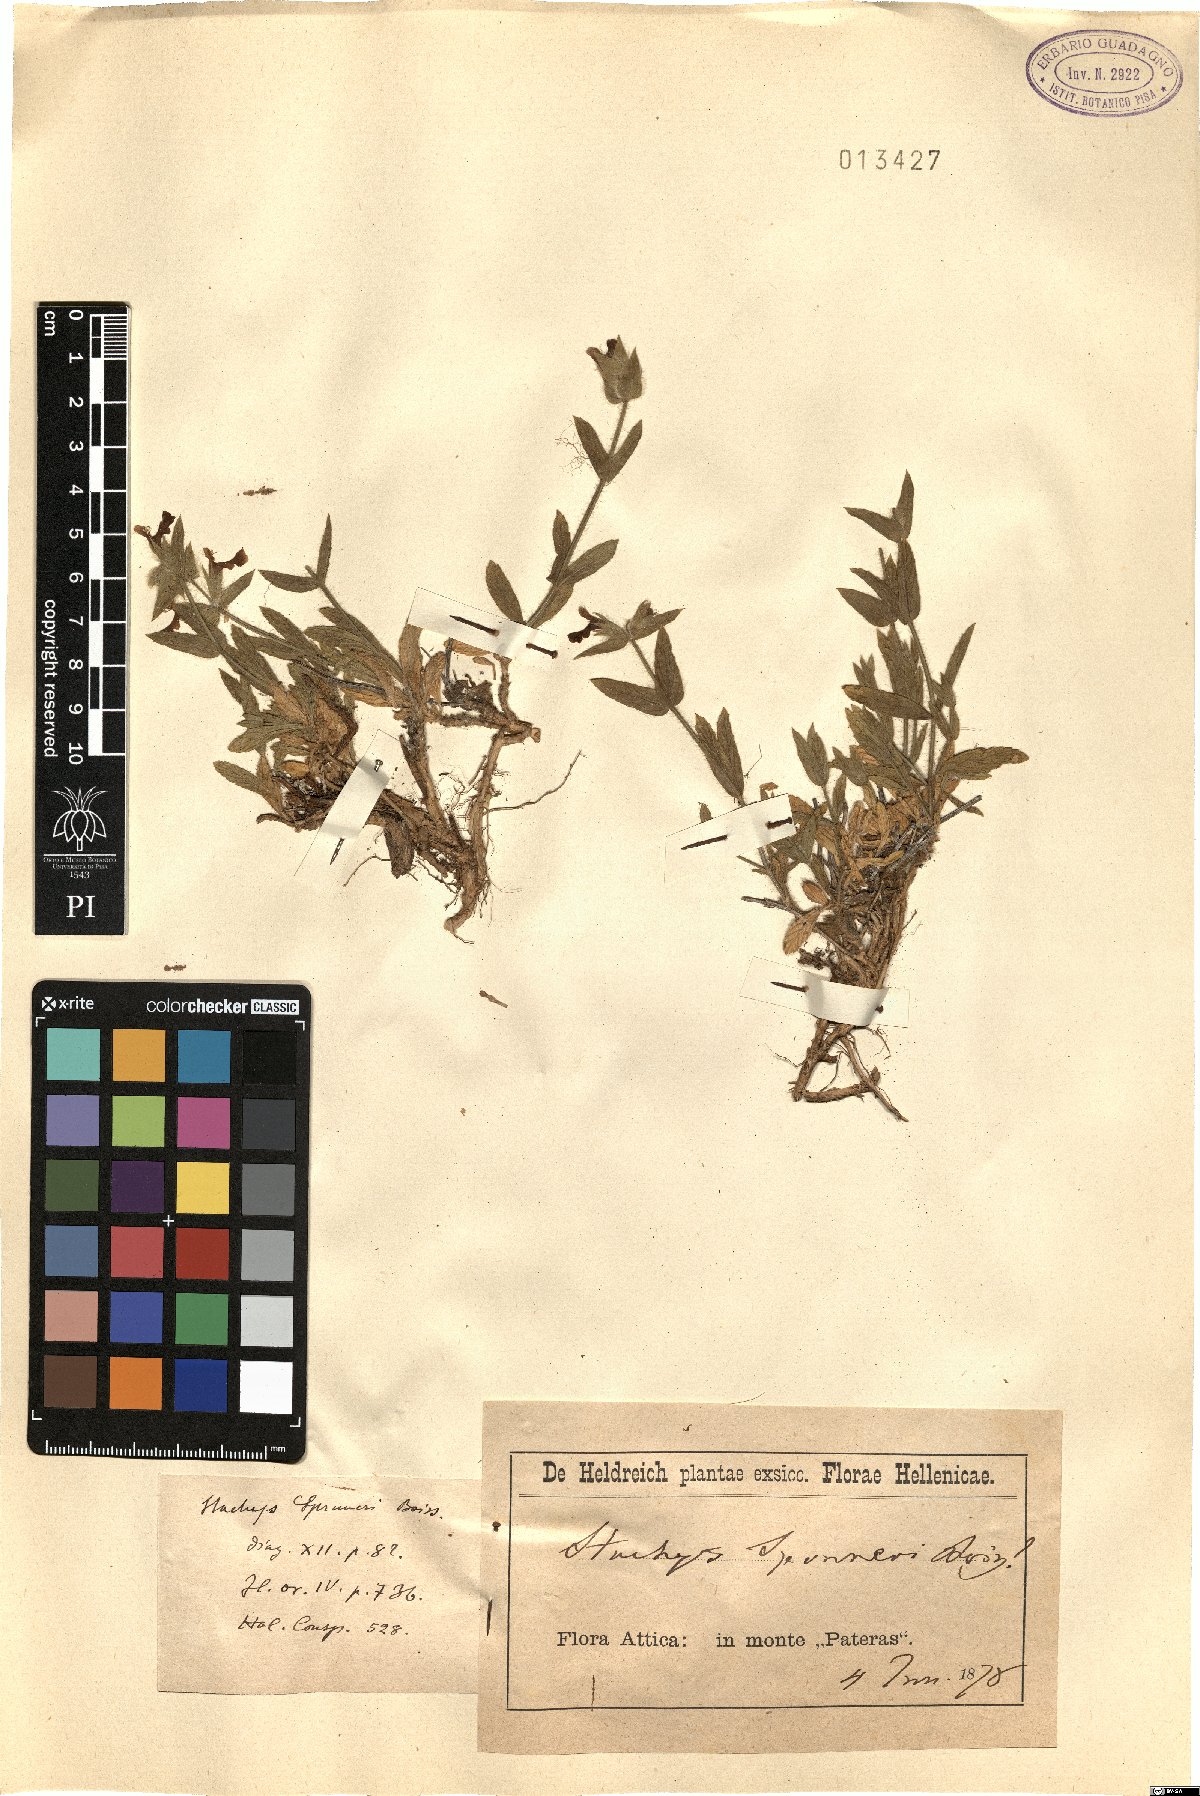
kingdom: Plantae
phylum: Tracheophyta
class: Magnoliopsida
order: Lamiales
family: Lamiaceae
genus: Stachys
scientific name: Stachys spruneri
